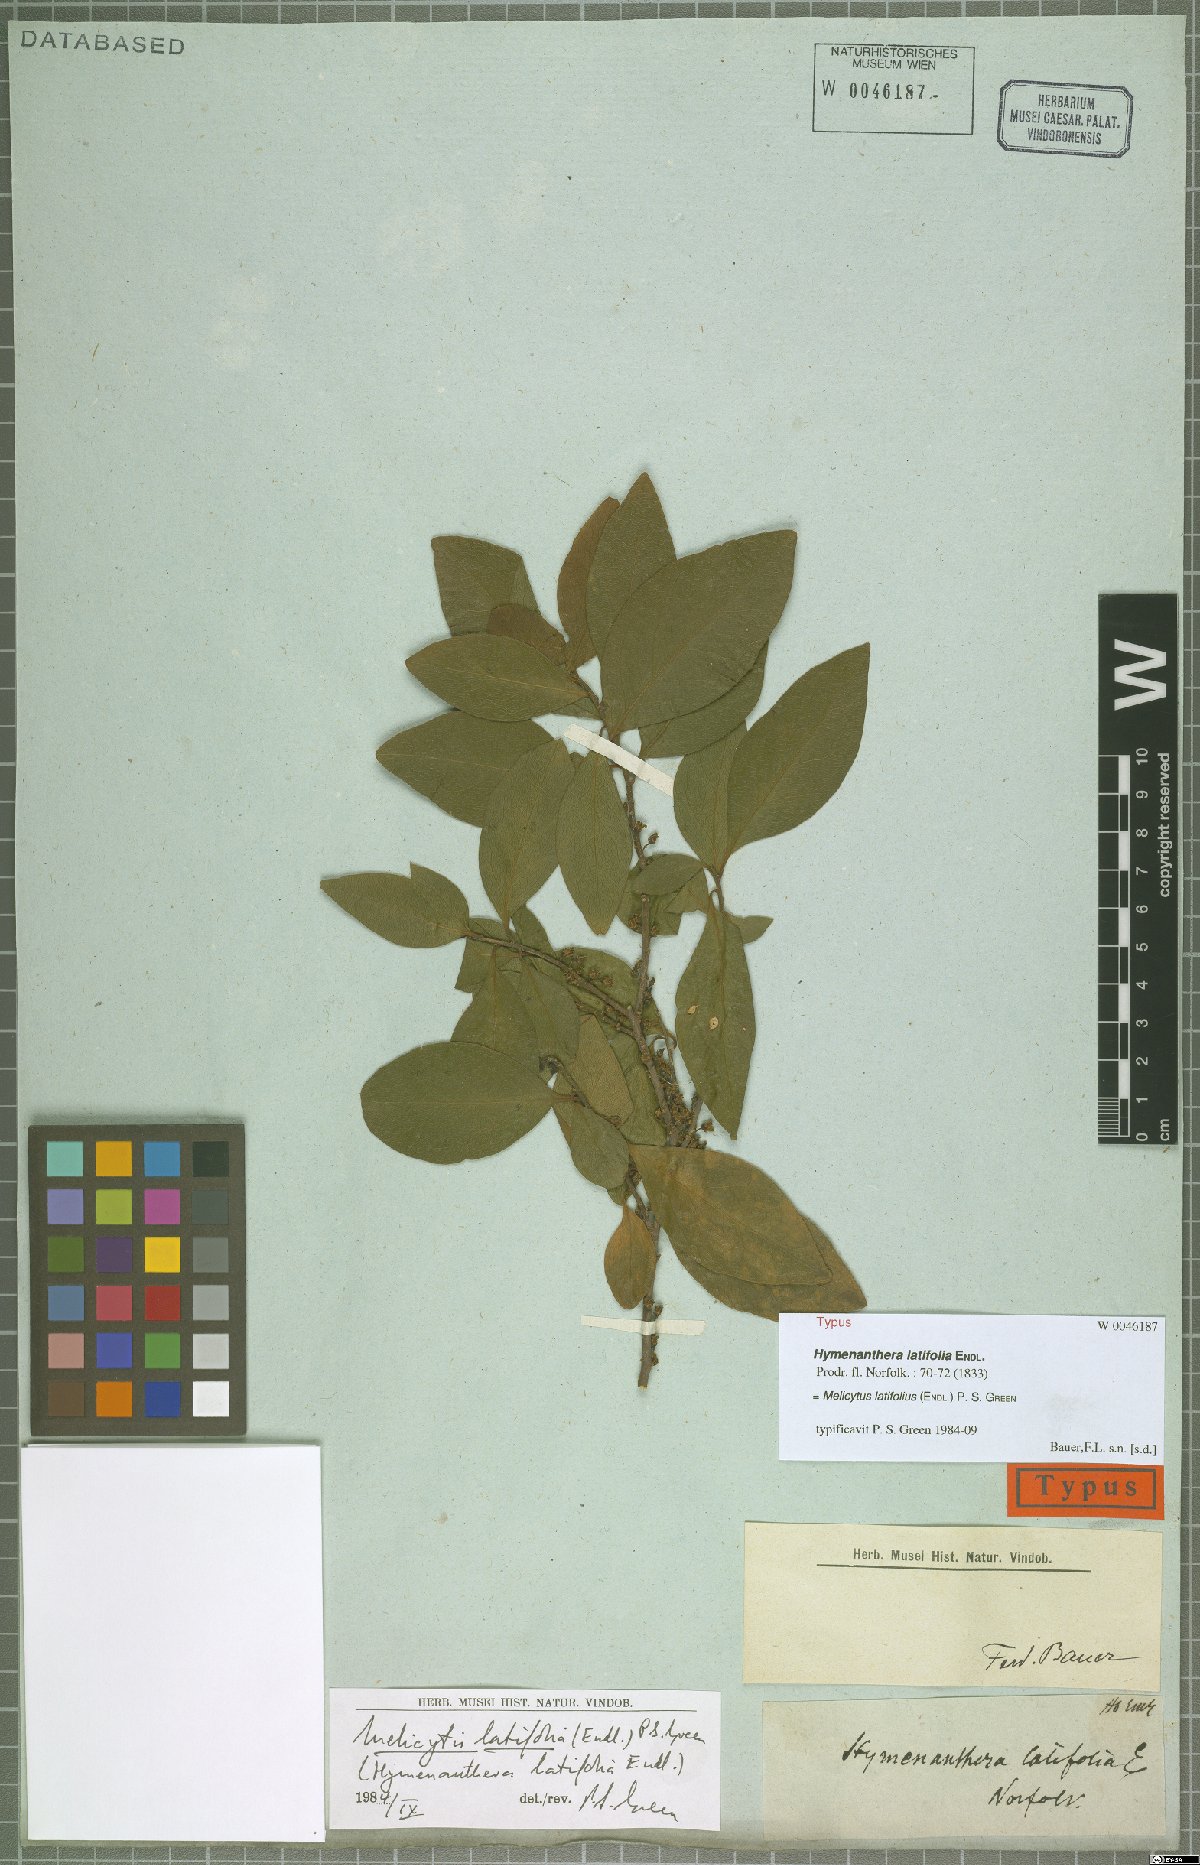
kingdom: Plantae
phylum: Tracheophyta
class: Magnoliopsida
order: Malpighiales
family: Violaceae
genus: Melicytus
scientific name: Melicytus latifolius
